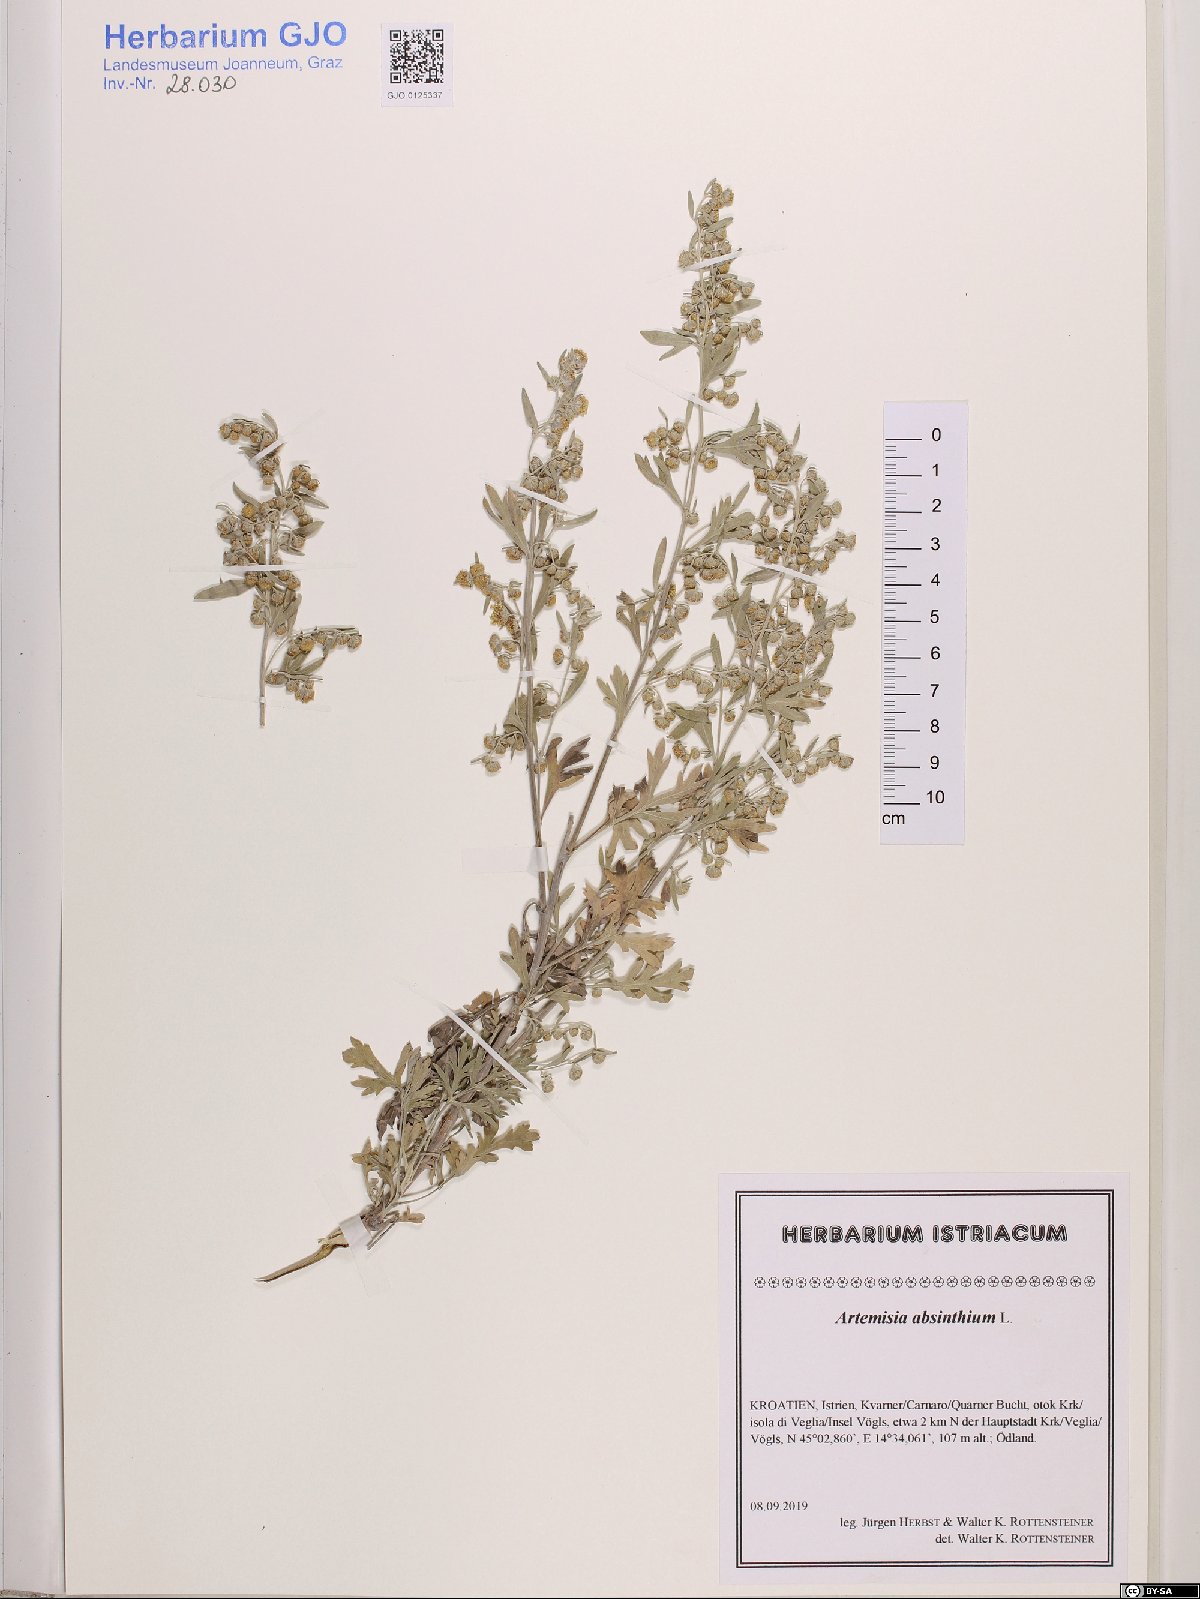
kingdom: Plantae
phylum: Tracheophyta
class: Magnoliopsida
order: Asterales
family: Asteraceae
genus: Artemisia
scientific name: Artemisia absinthium
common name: Wormwood
